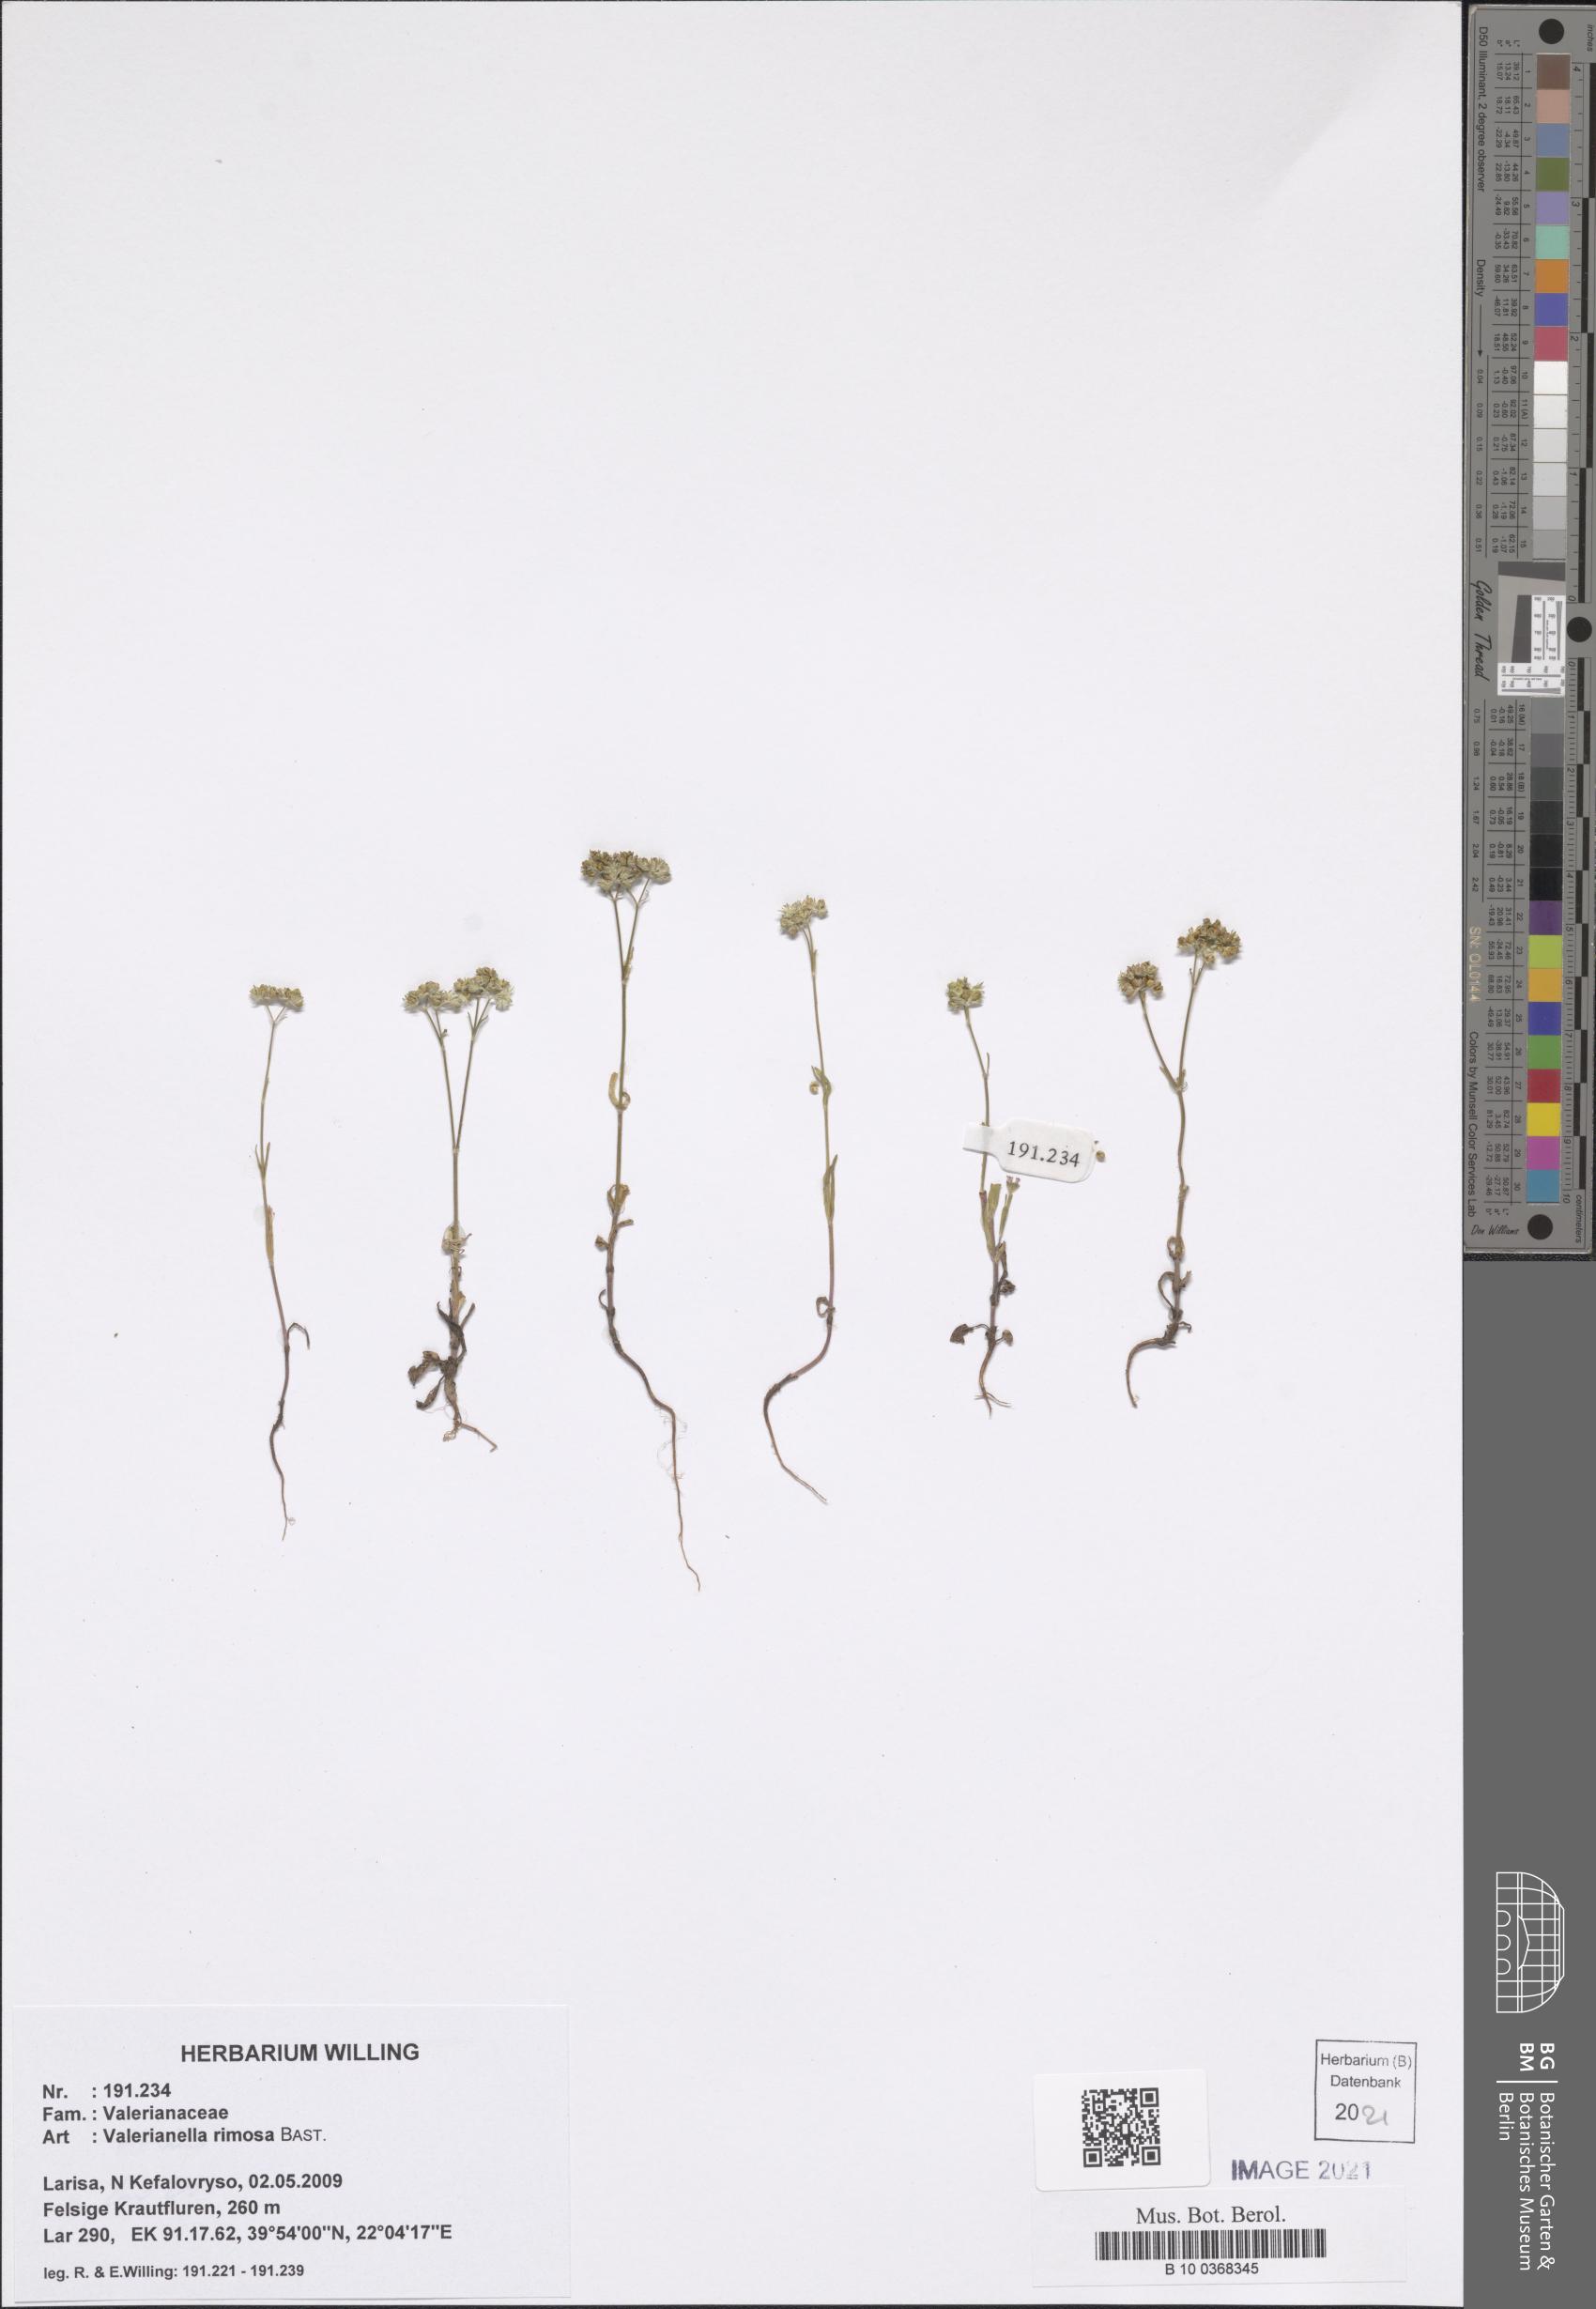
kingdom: Plantae
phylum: Tracheophyta
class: Magnoliopsida
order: Dipsacales
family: Caprifoliaceae
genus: Valerianella
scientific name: Valerianella rimosa
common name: Broad-fruited cornsalad
